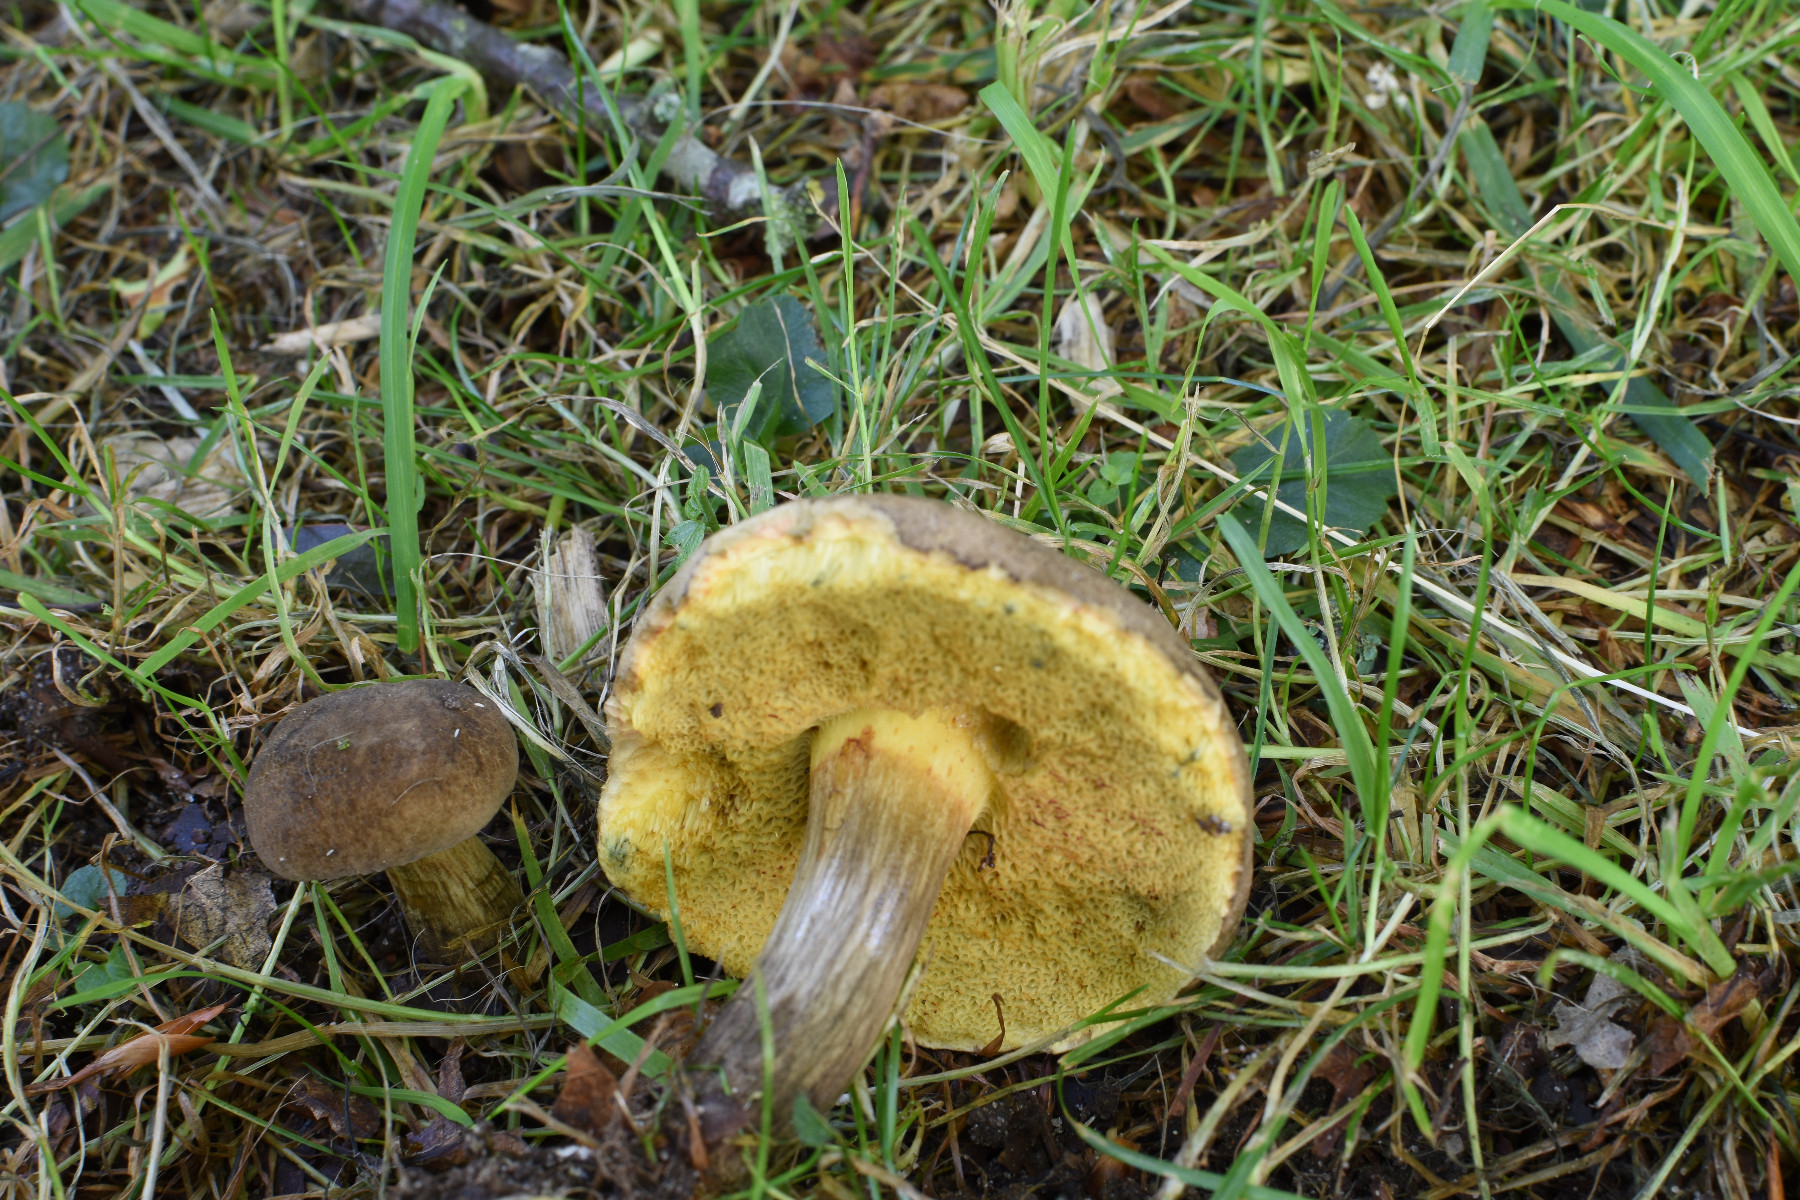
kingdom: Fungi
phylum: Basidiomycota
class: Agaricomycetes
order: Boletales
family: Boletaceae
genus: Xerocomellus
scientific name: Xerocomellus porosporus
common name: hvidsprukken rørhat
